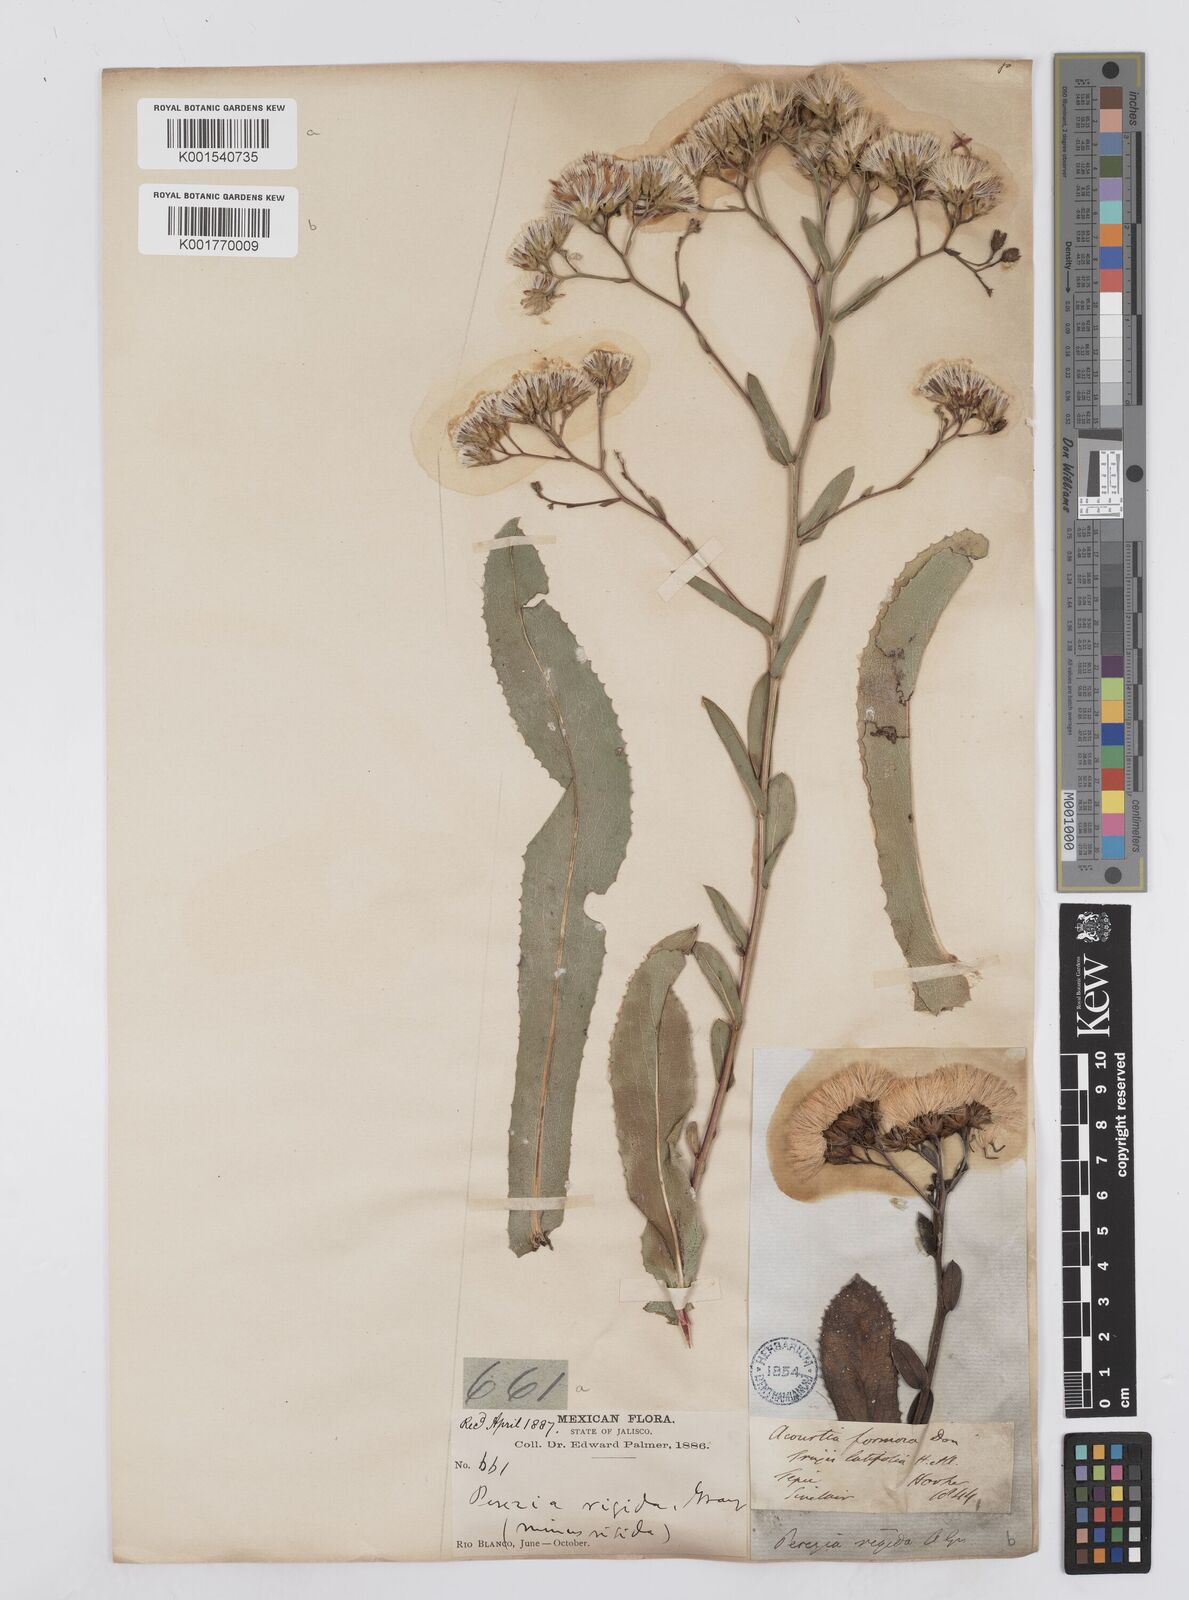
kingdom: Plantae
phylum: Tracheophyta
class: Magnoliopsida
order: Asterales
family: Asteraceae
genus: Acourtia
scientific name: Acourtia fruticosa
